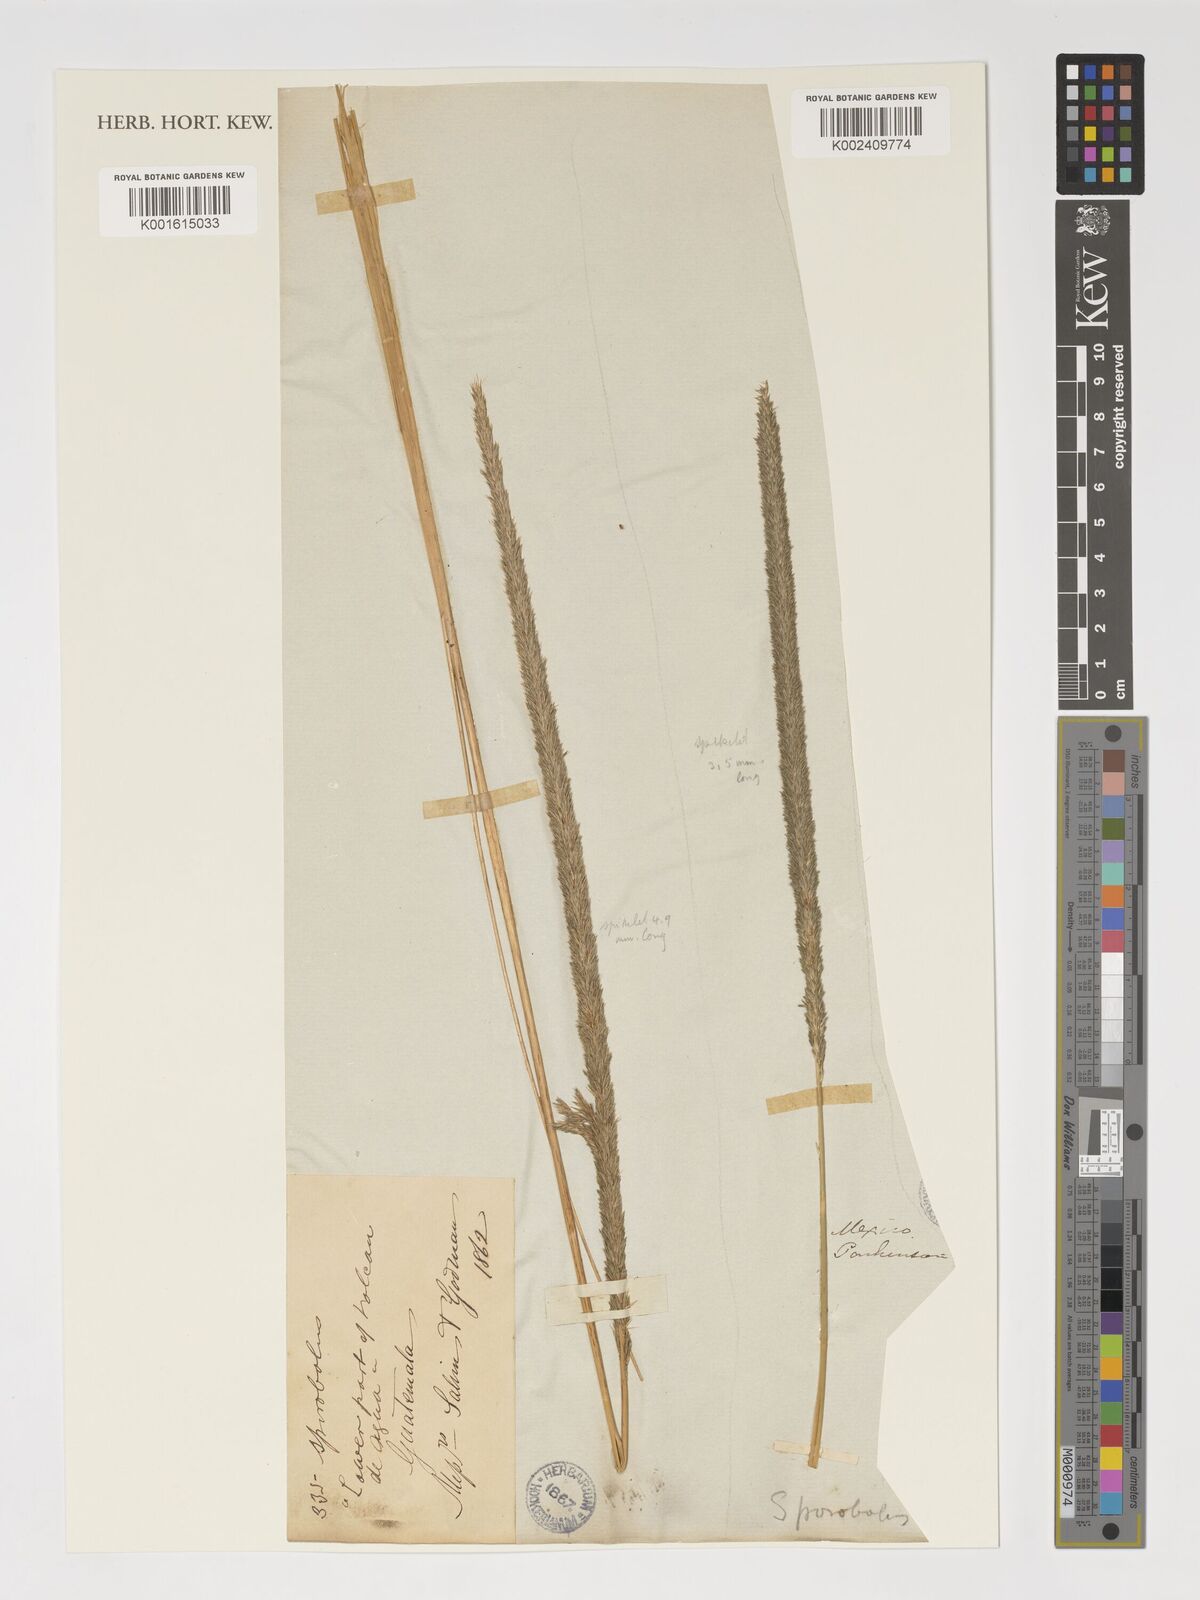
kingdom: Plantae
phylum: Tracheophyta
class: Liliopsida
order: Poales
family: Poaceae
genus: Sporobolus
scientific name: Sporobolus
